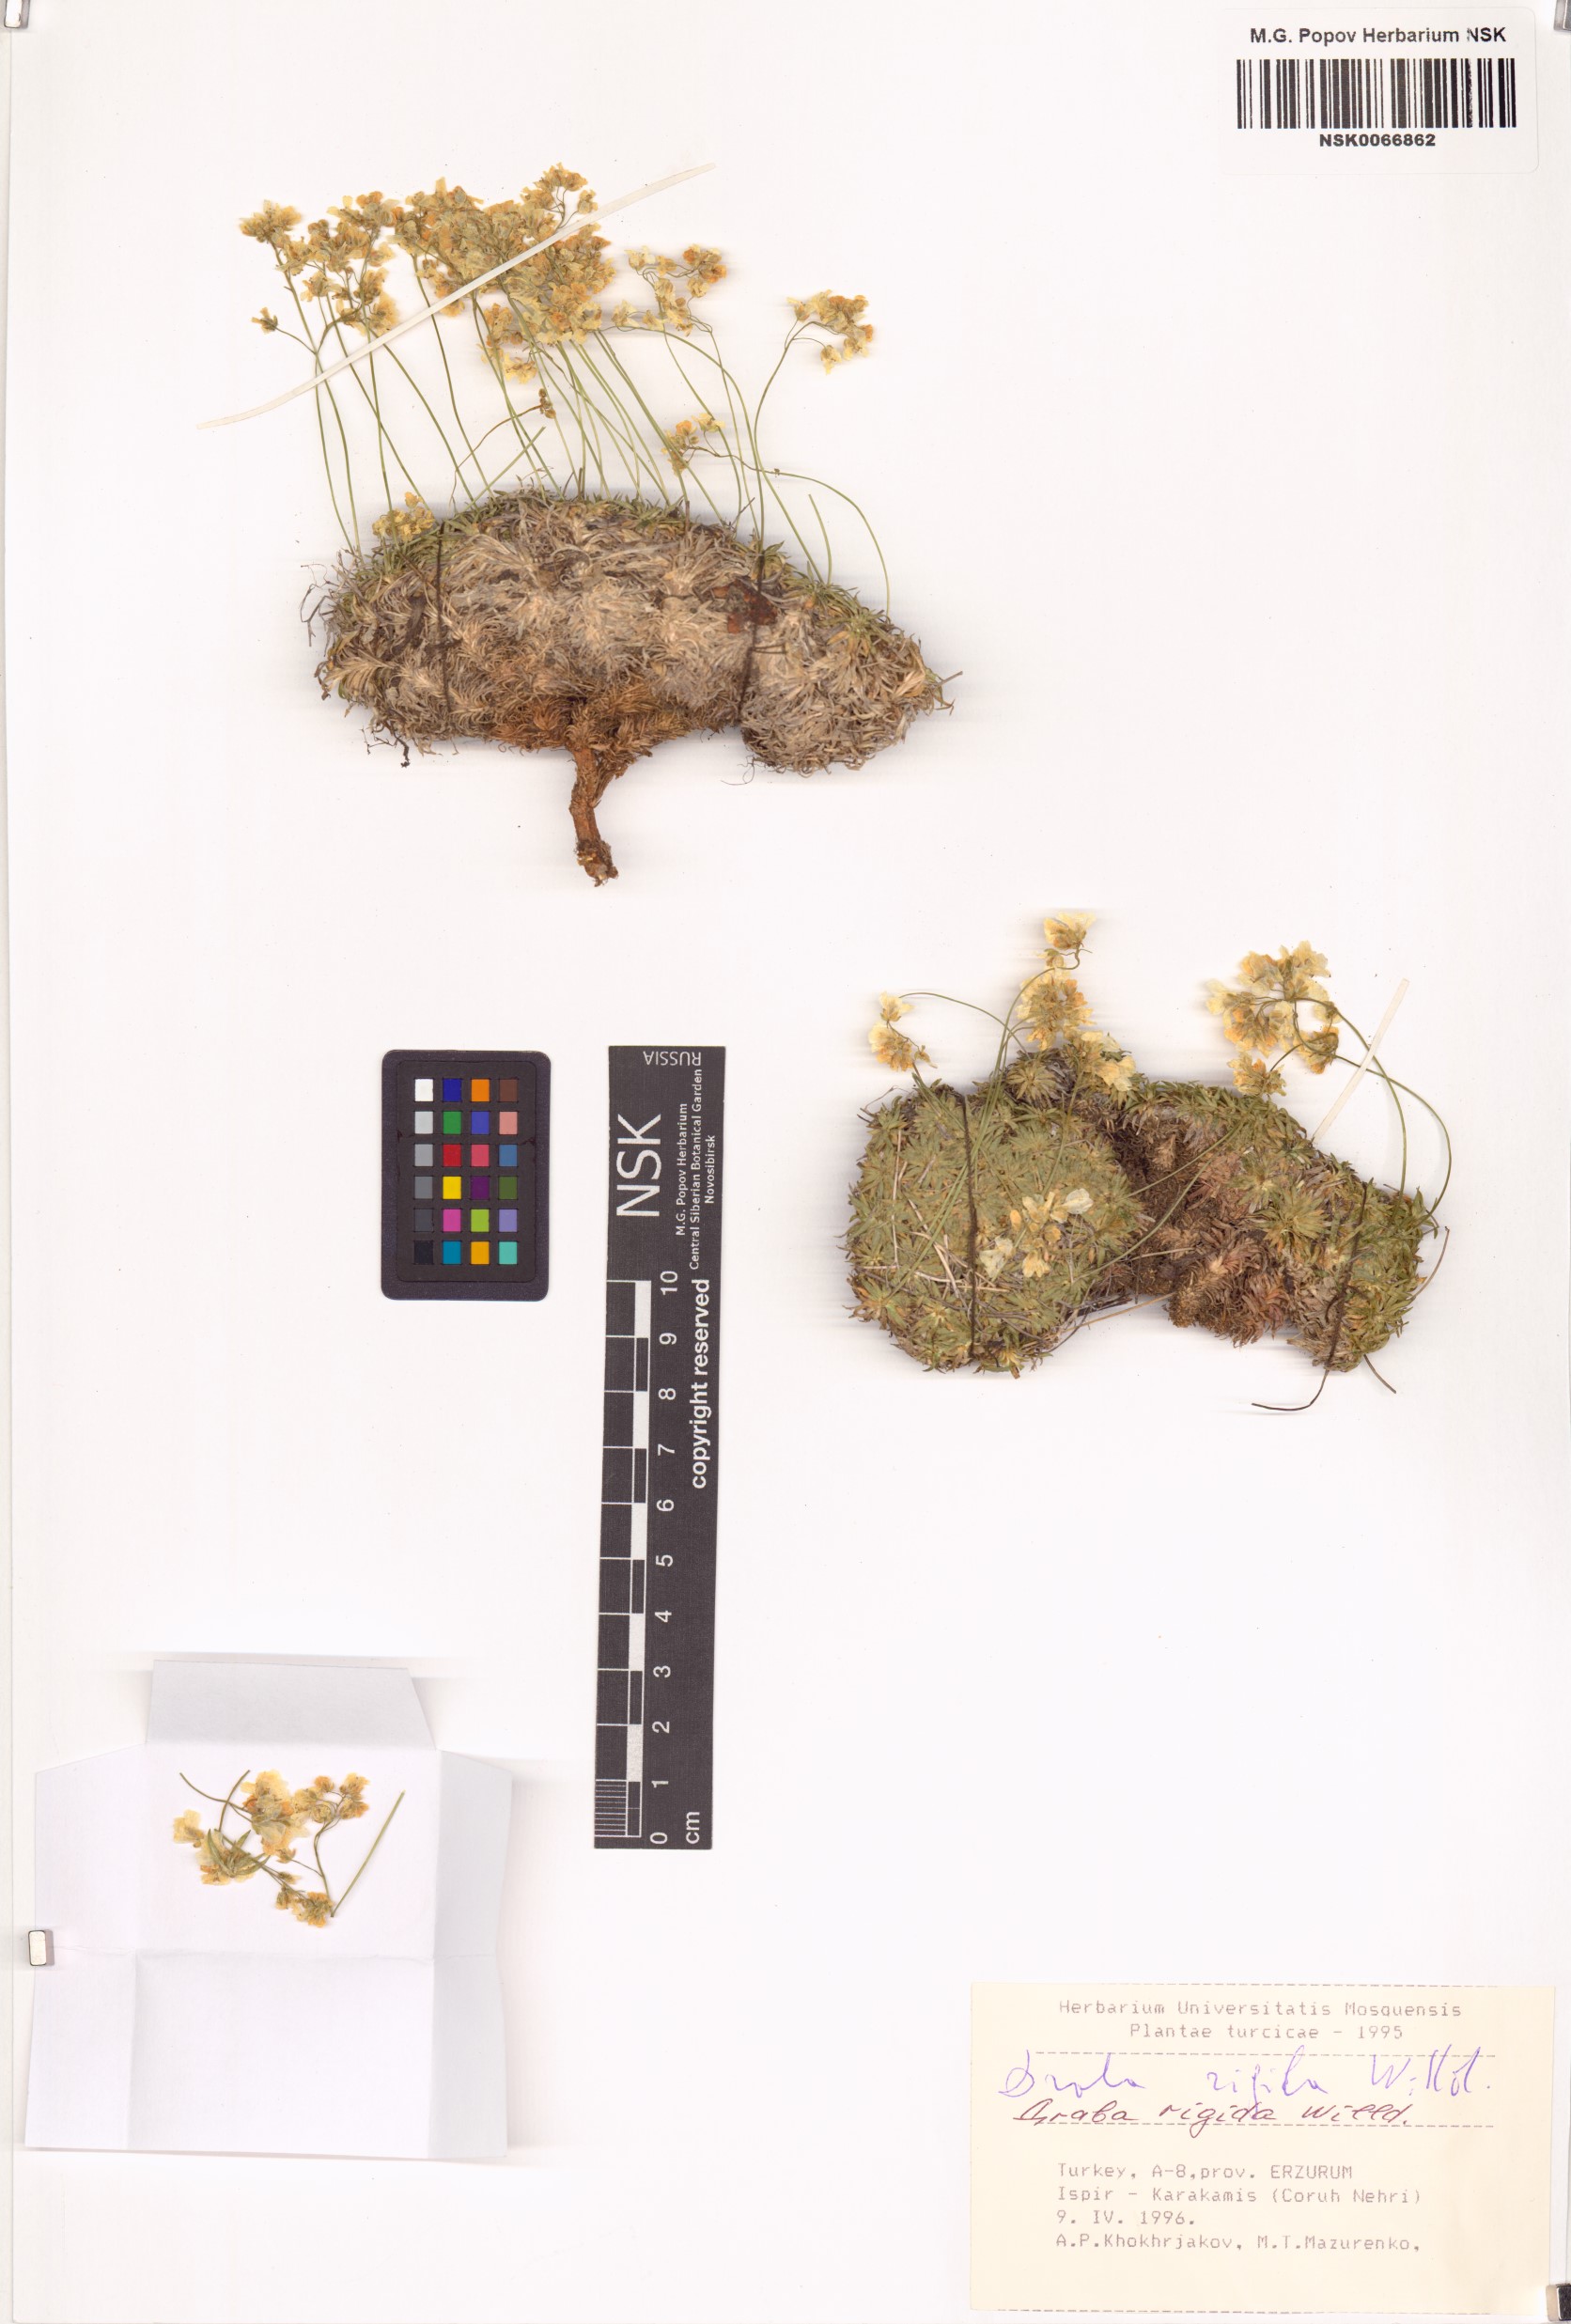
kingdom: Plantae
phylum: Tracheophyta
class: Magnoliopsida
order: Brassicales
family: Brassicaceae
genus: Draba
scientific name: Draba rigida
